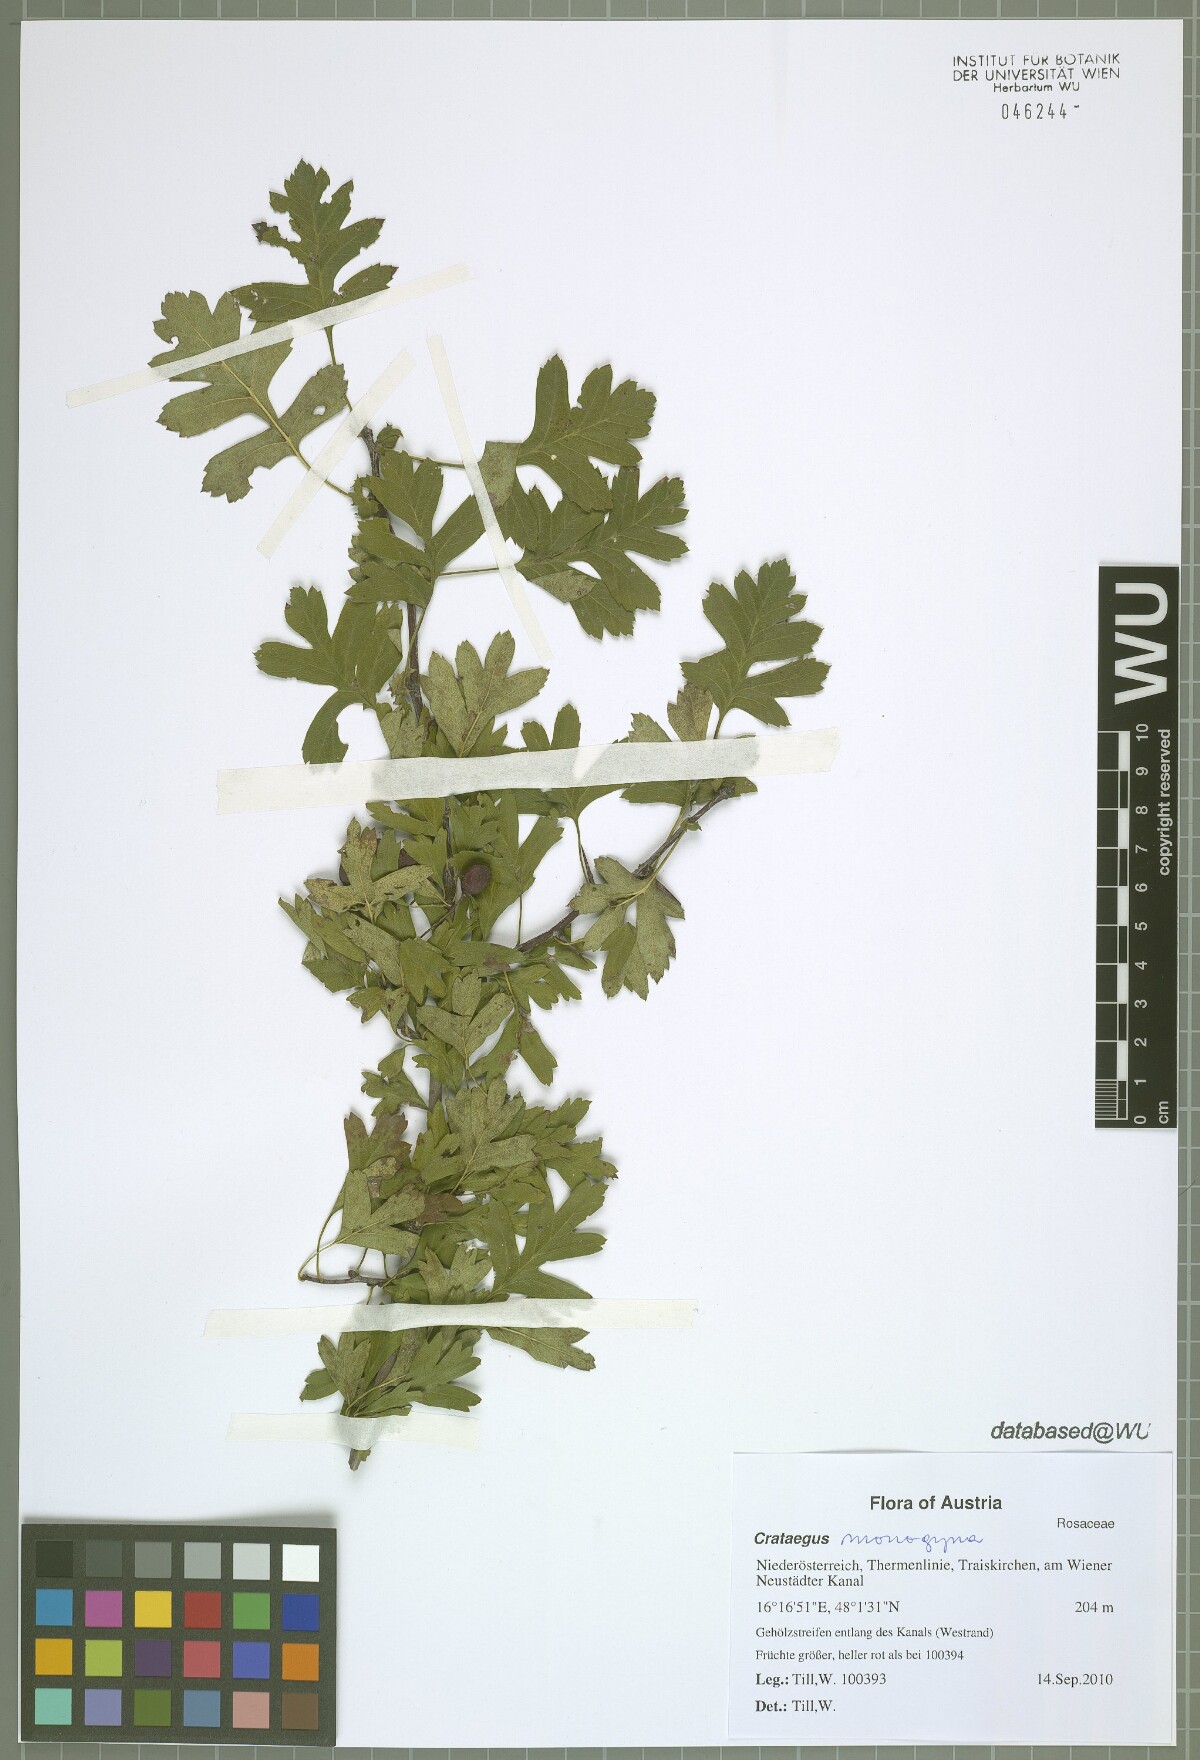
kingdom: Plantae
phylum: Tracheophyta
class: Magnoliopsida
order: Rosales
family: Rosaceae
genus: Crataegus
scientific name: Crataegus monogyna
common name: Hawthorn
